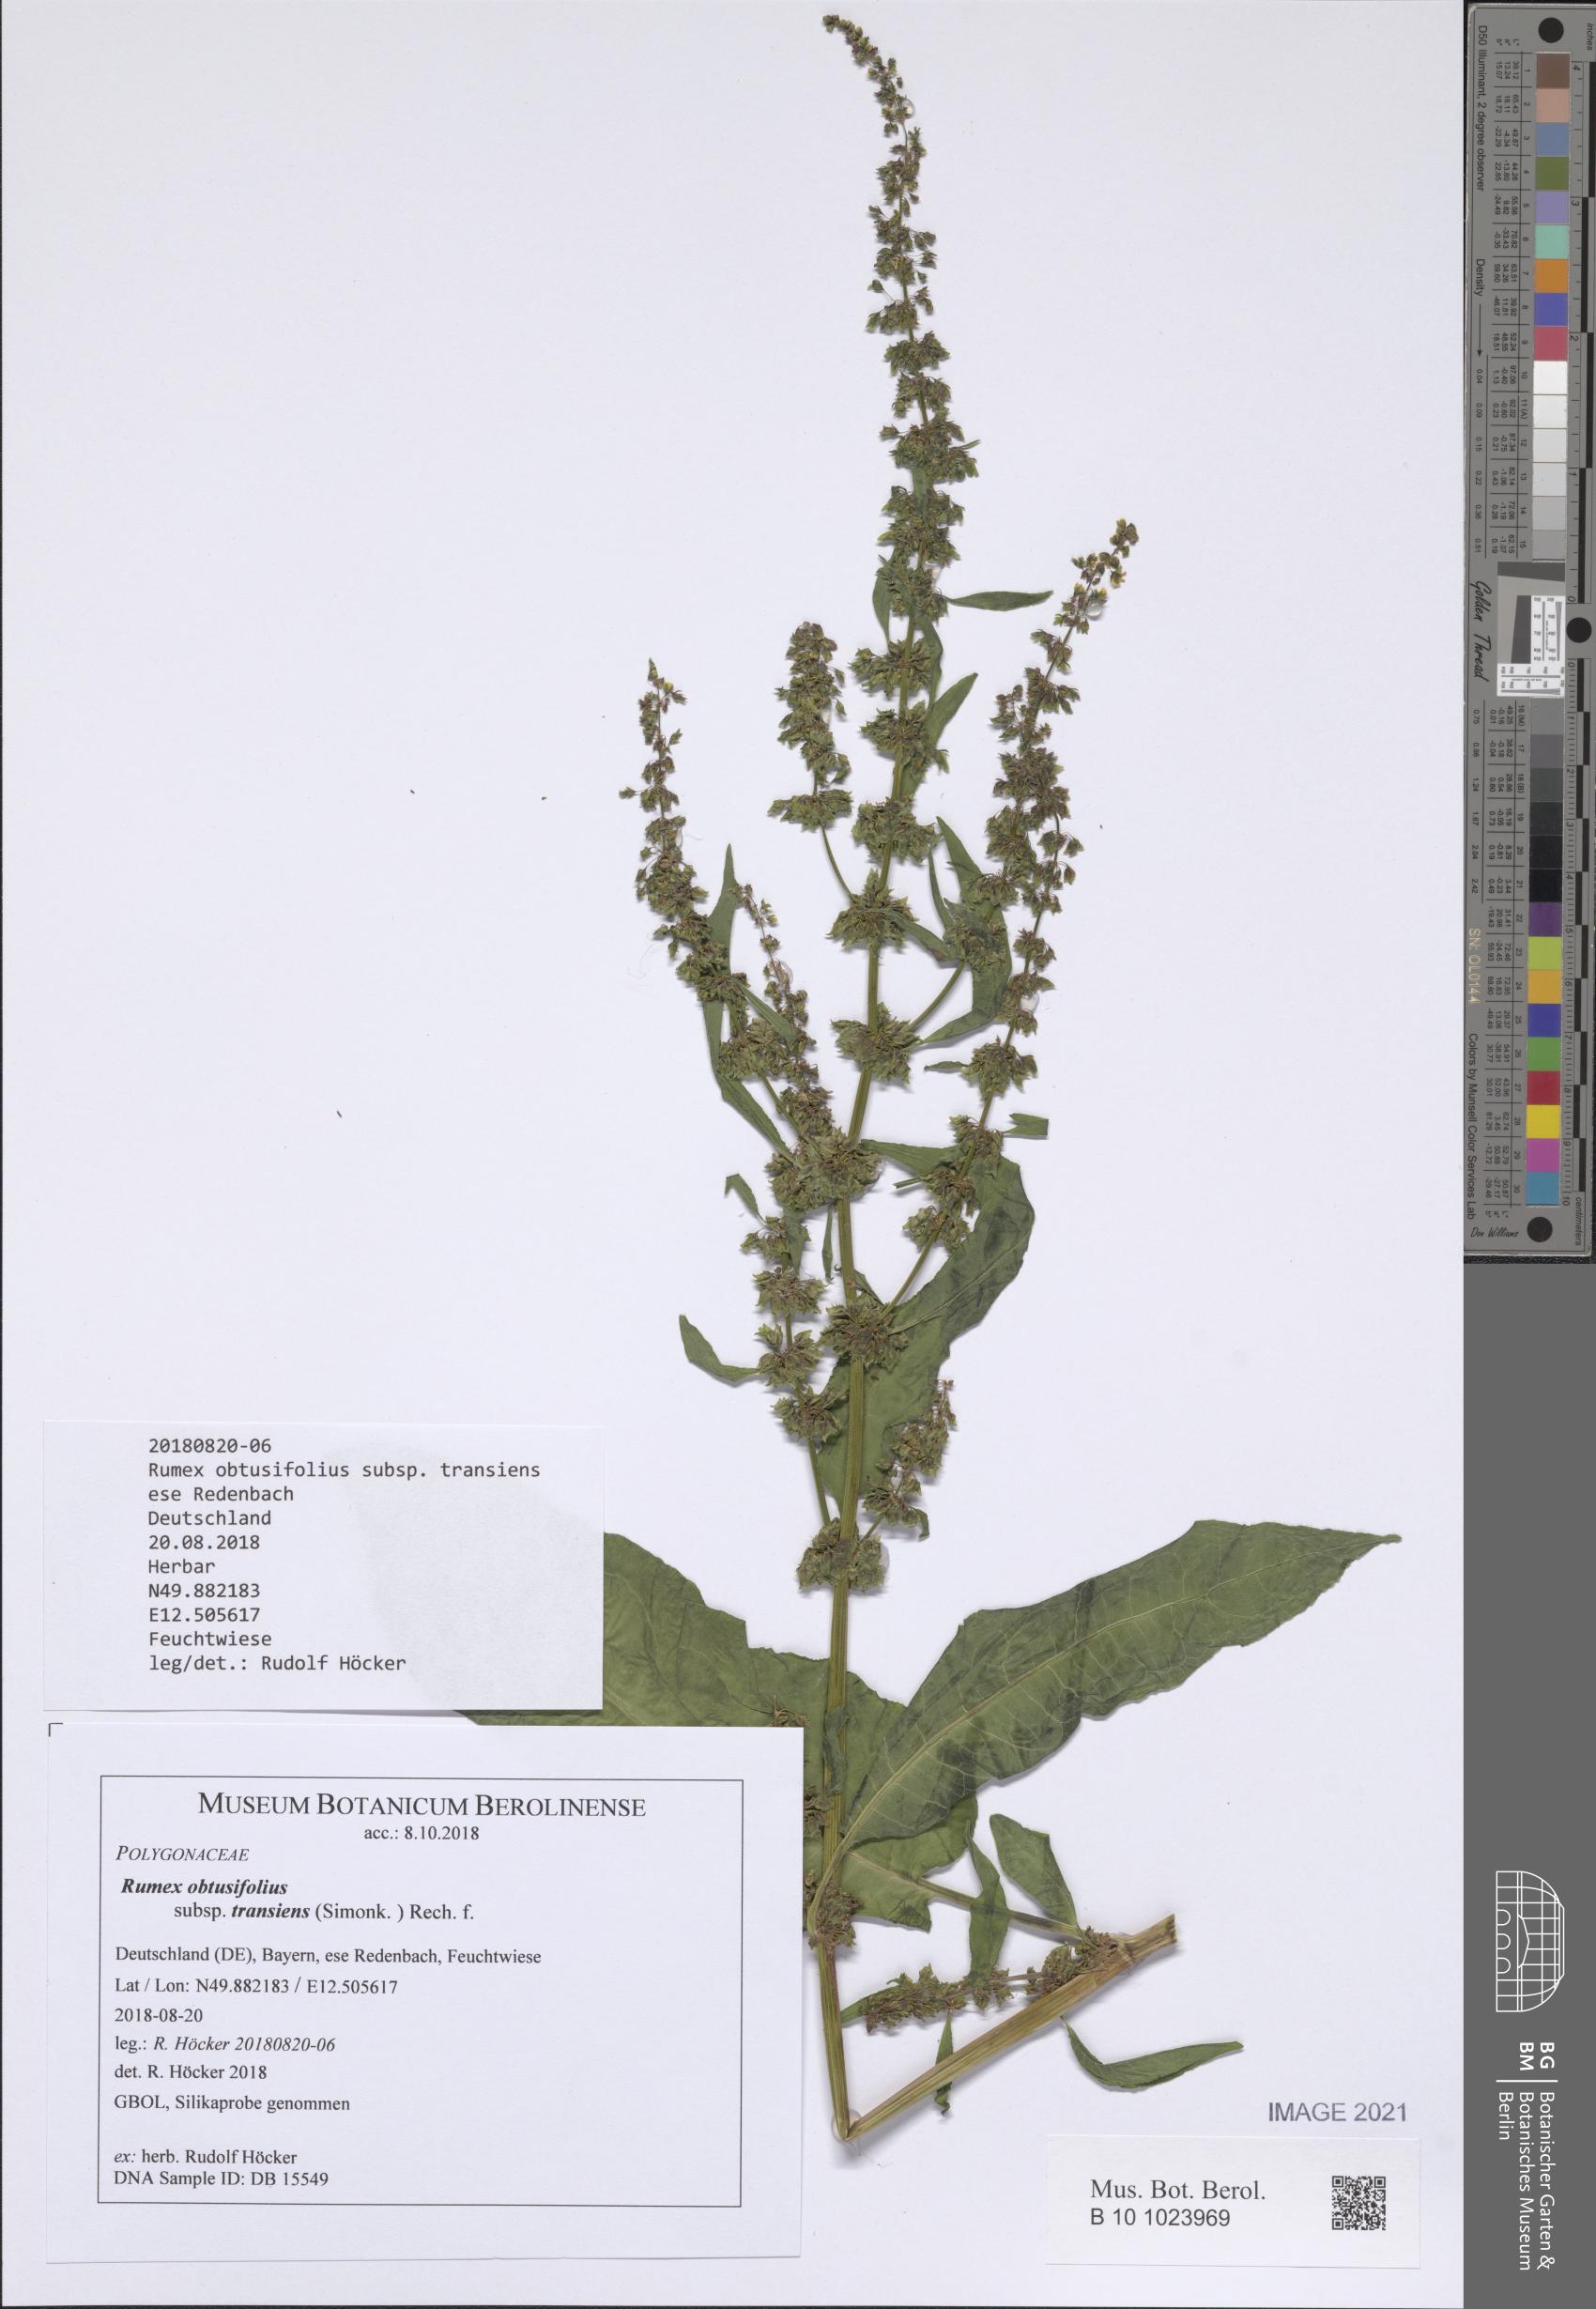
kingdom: Plantae
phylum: Tracheophyta
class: Magnoliopsida
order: Caryophyllales
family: Polygonaceae
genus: Rumex
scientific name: Rumex obtusifolius
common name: Bitter dock
